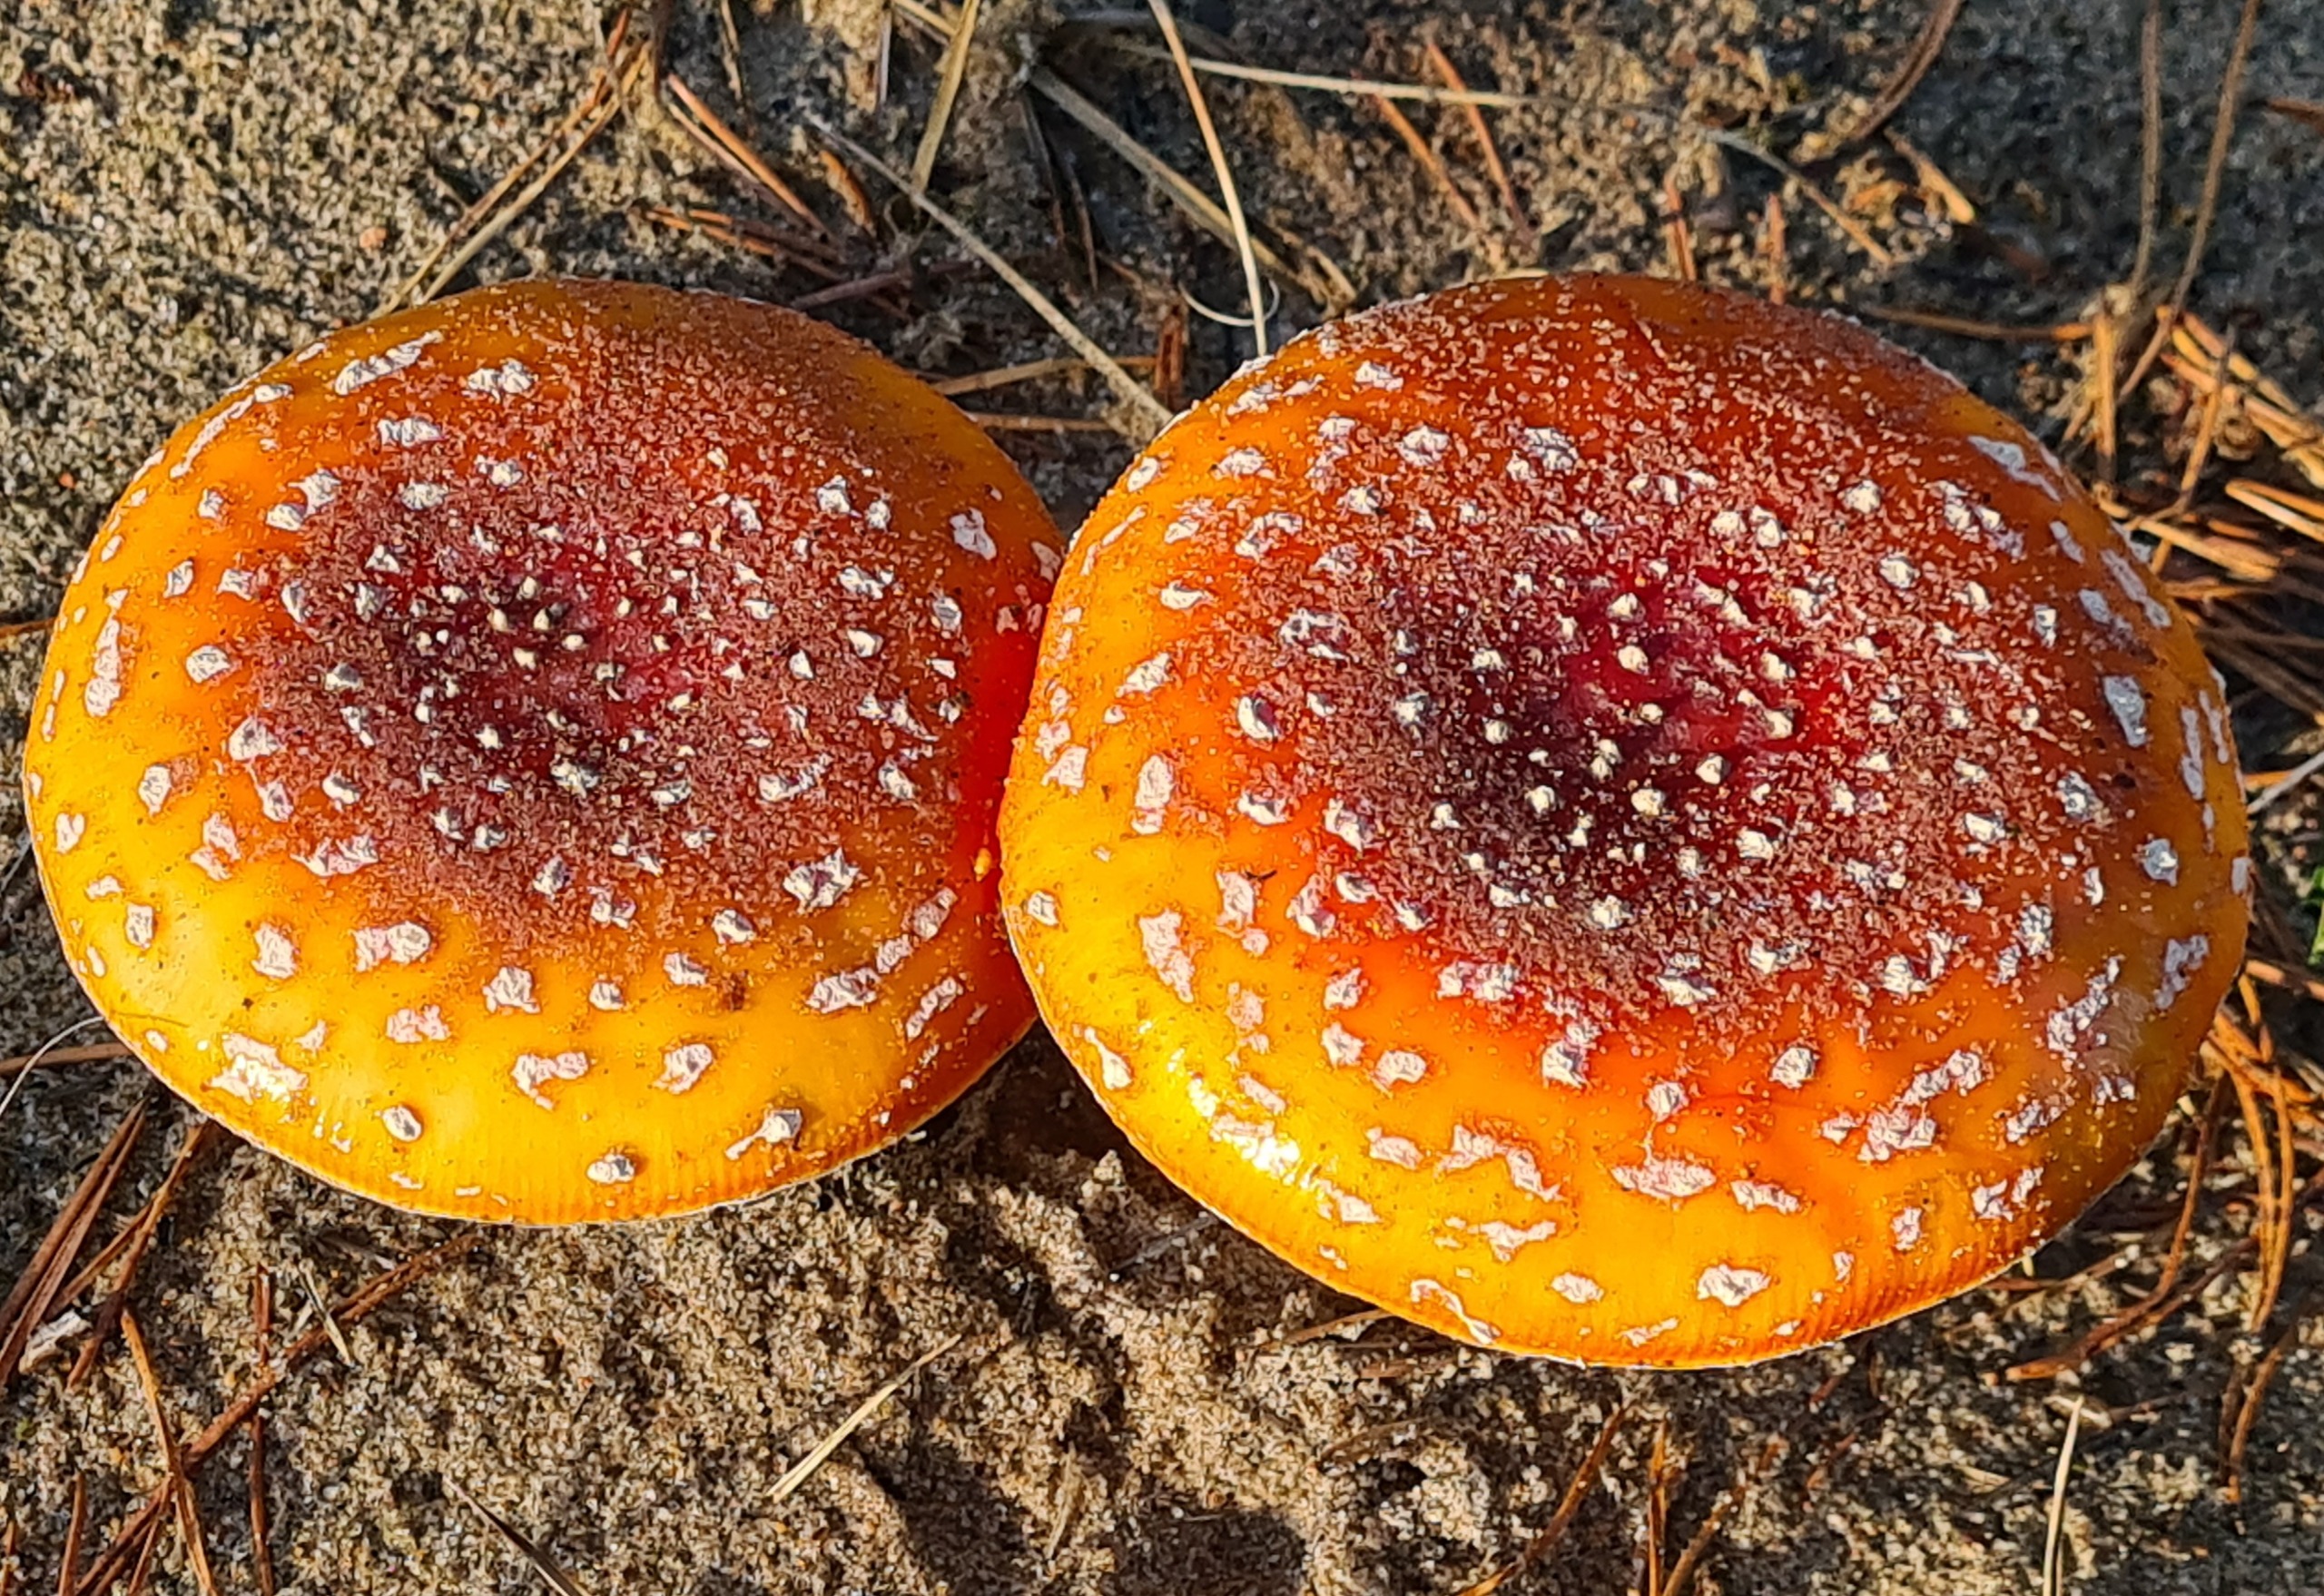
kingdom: Fungi
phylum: Basidiomycota
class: Agaricomycetes
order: Agaricales
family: Amanitaceae
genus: Amanita
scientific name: Amanita muscaria
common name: Rød fluesvamp
